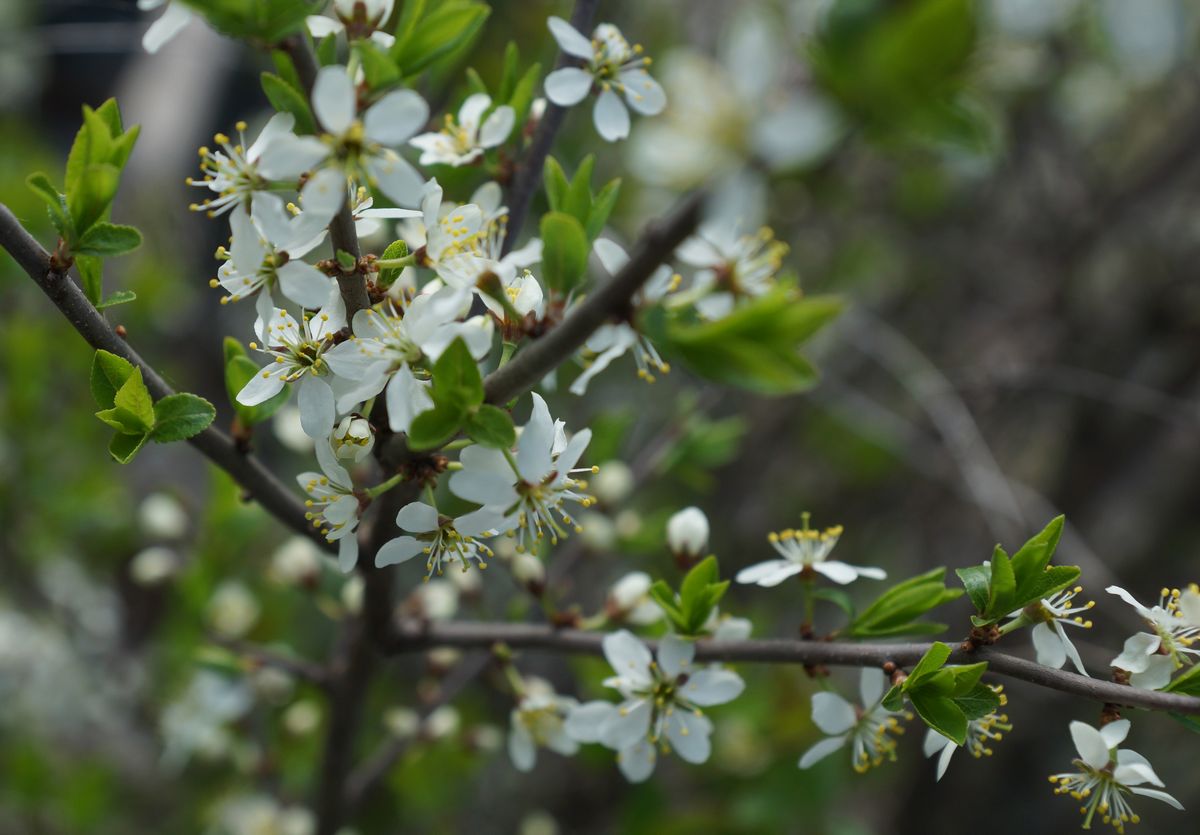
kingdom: Plantae
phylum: Tracheophyta
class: Magnoliopsida
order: Rosales
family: Rosaceae
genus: Prunus
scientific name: Prunus cerasus
